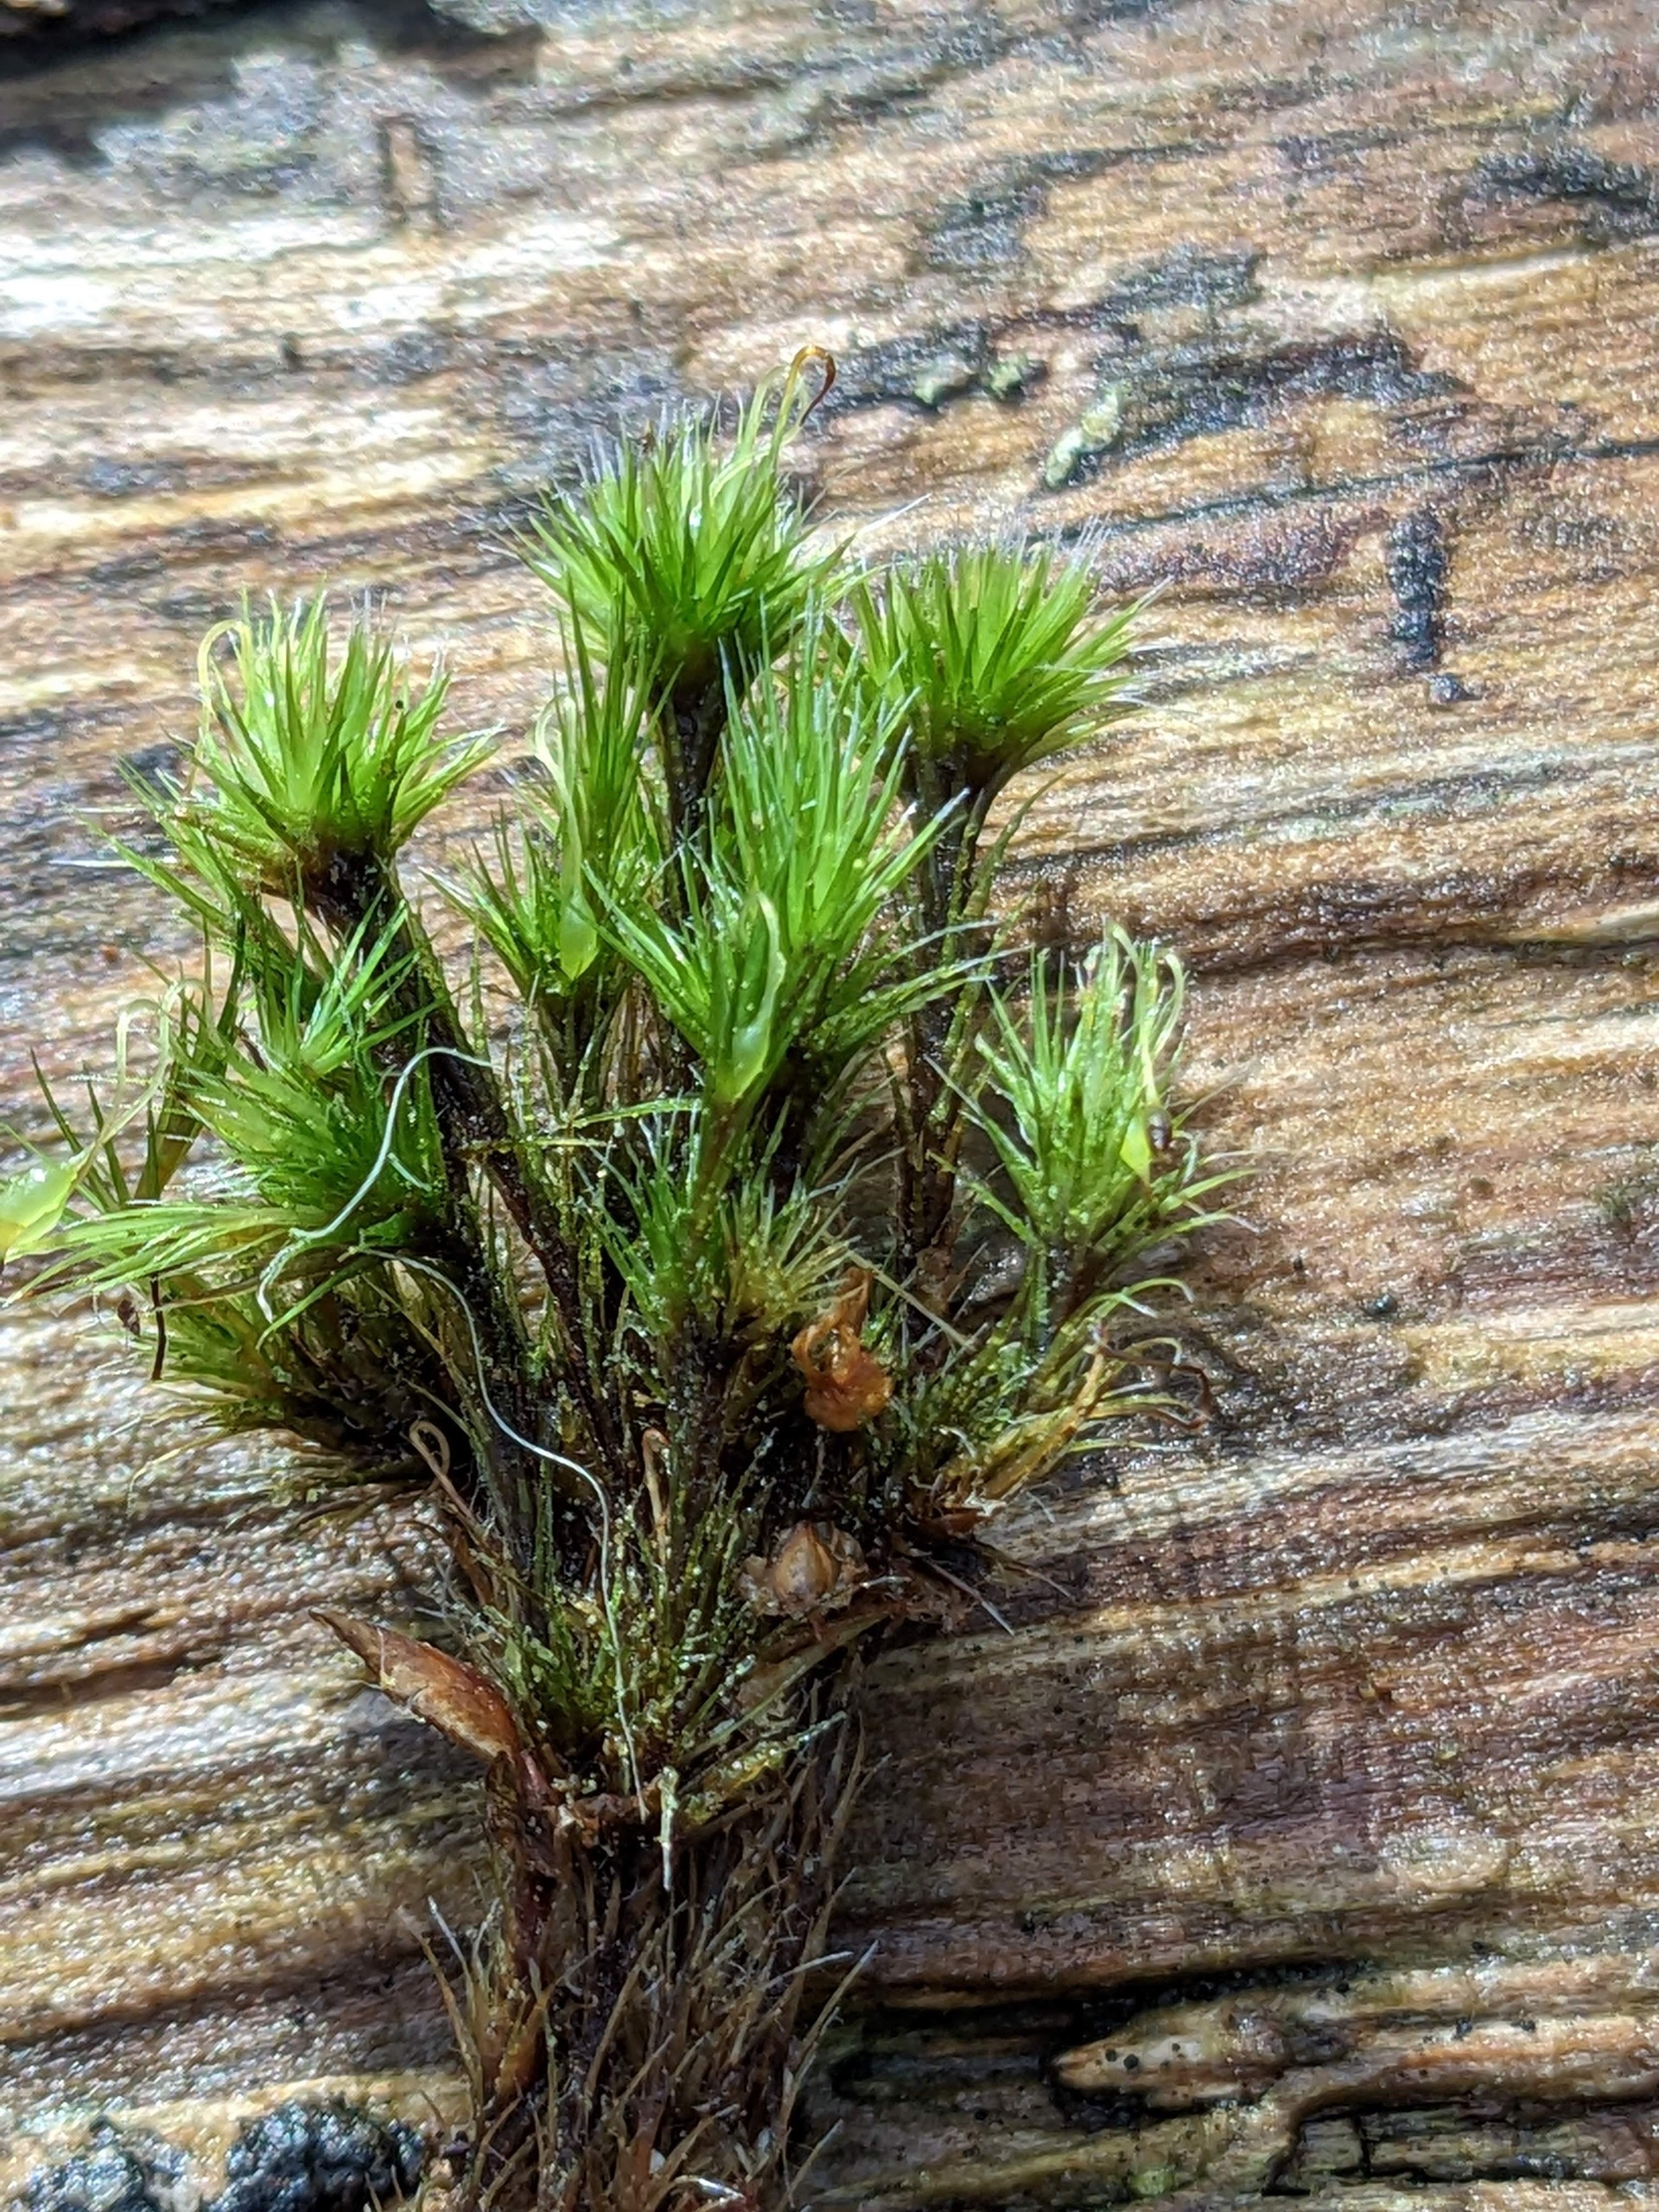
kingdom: Plantae
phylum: Bryophyta
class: Bryopsida
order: Dicranales
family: Leucobryaceae
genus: Campylopus
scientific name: Campylopus introflexus
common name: Stjerne-bredribbe
